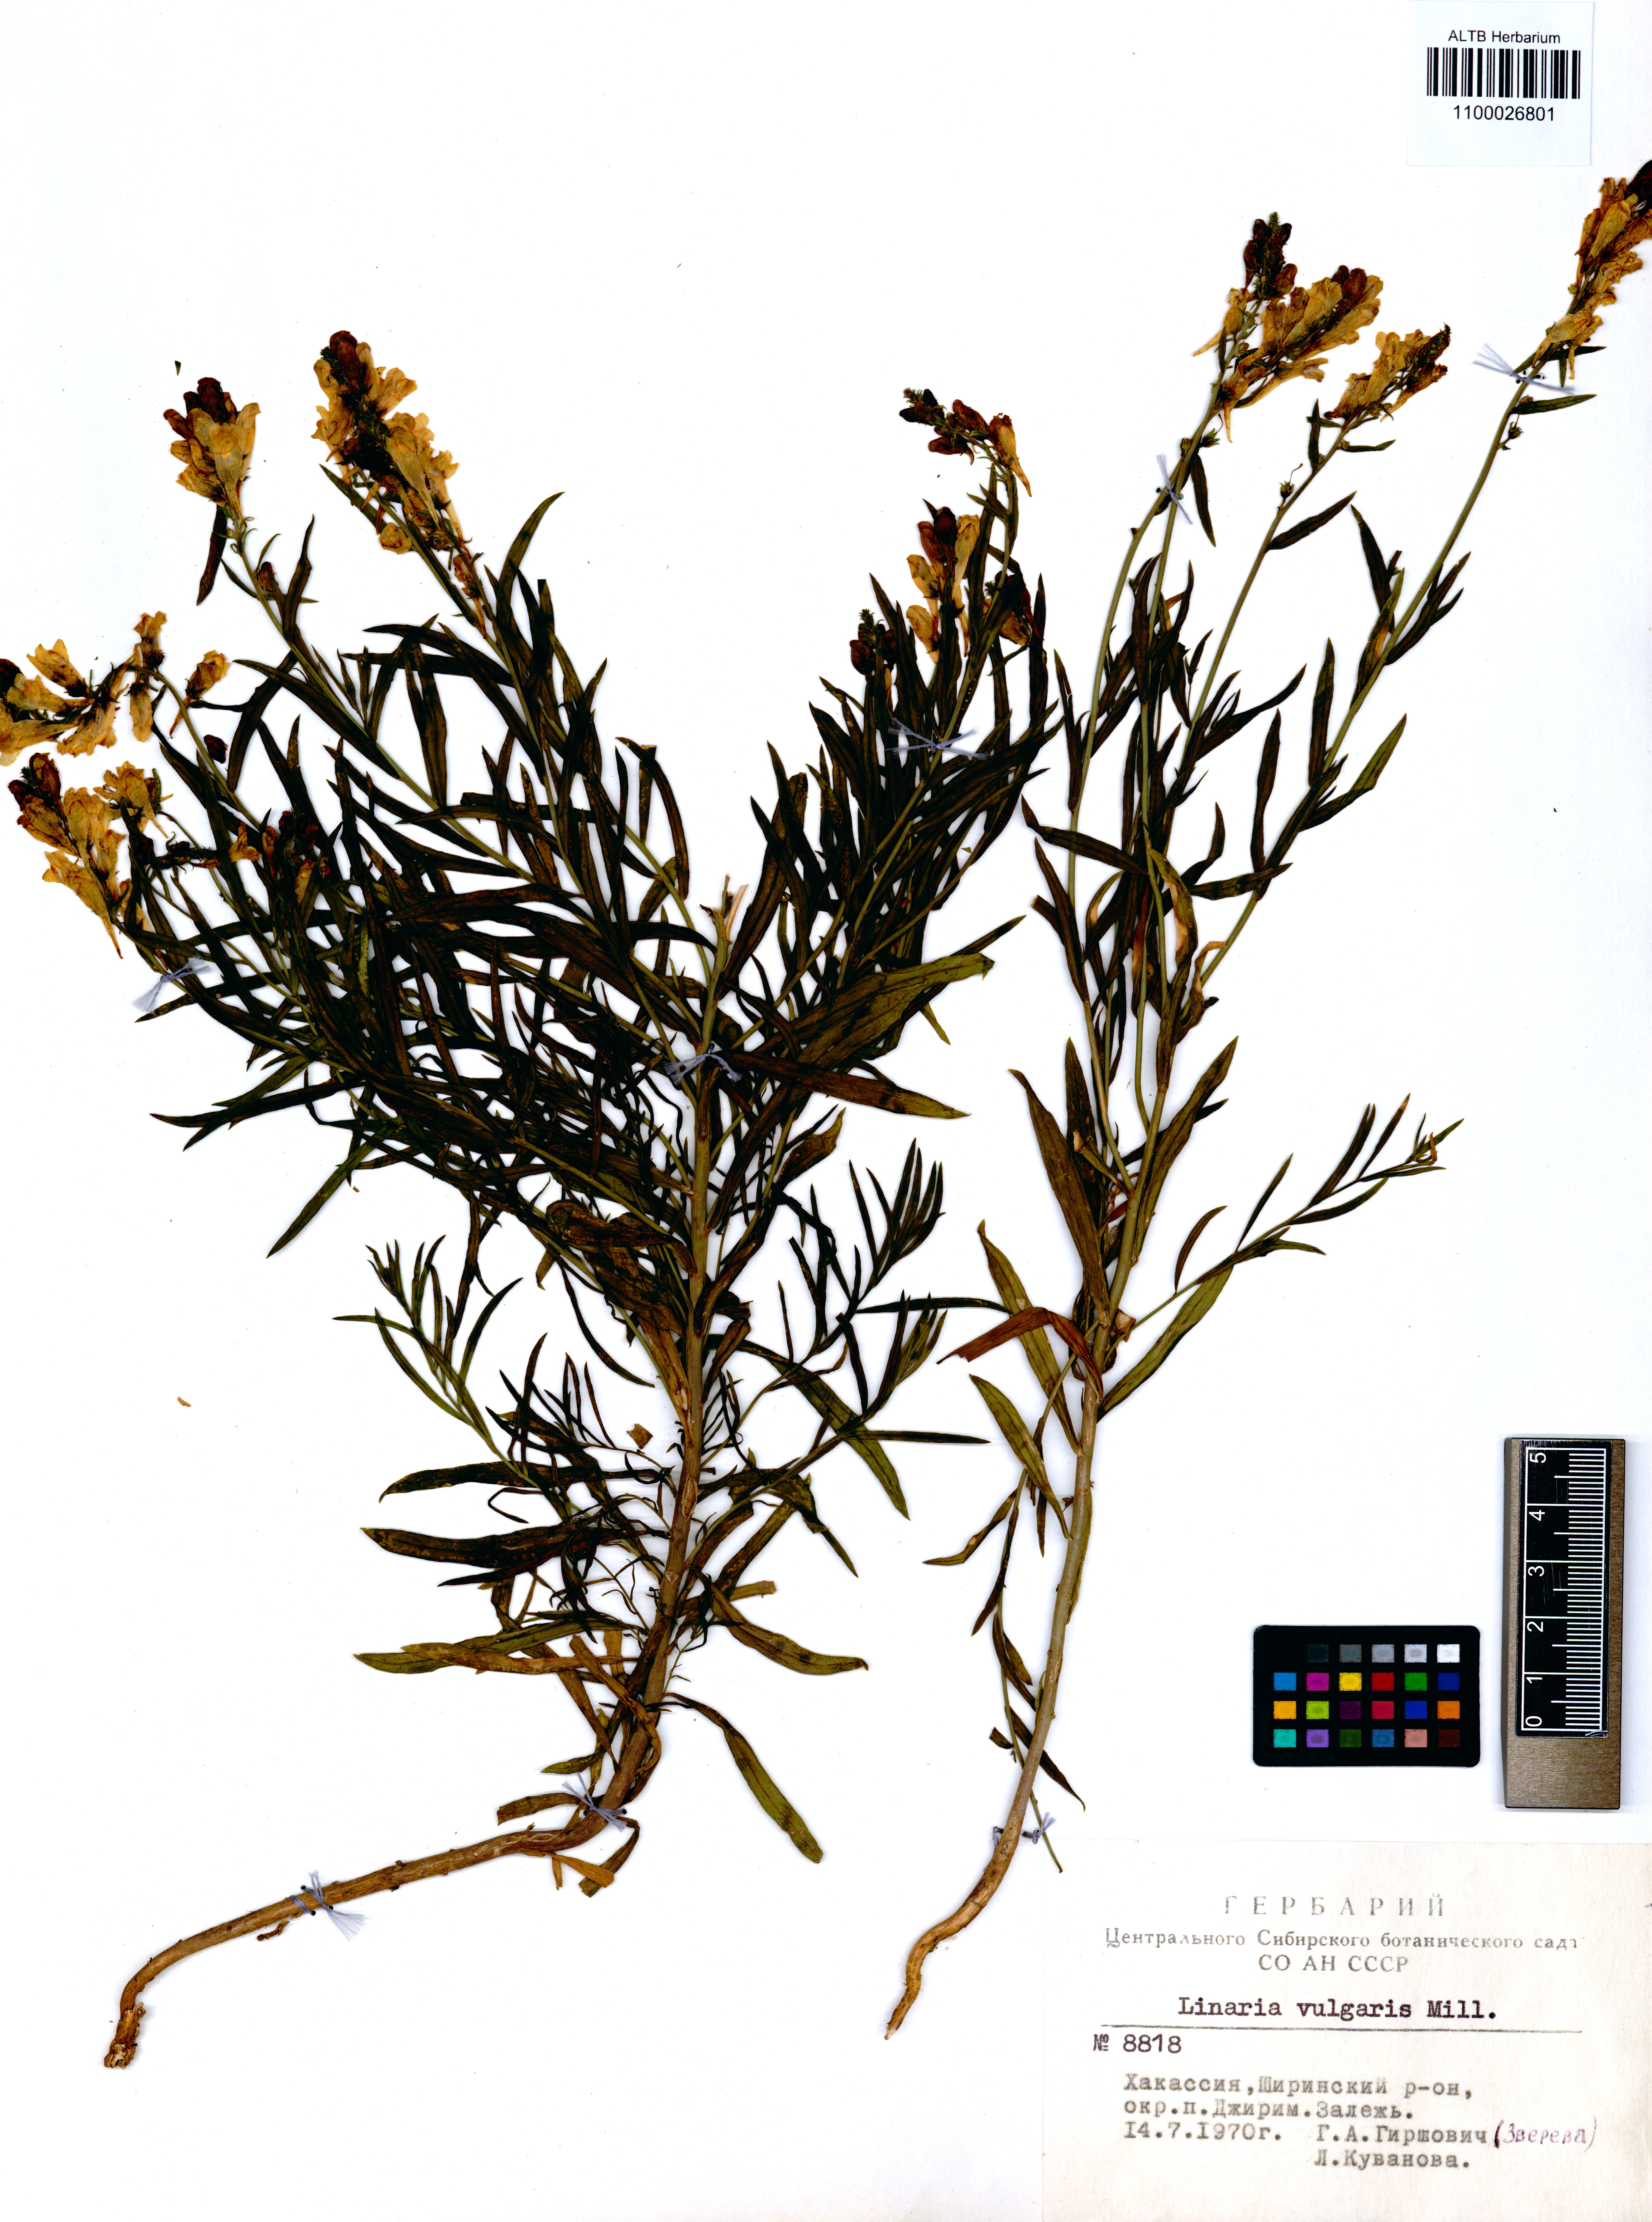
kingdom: Plantae
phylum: Tracheophyta
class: Magnoliopsida
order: Lamiales
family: Plantaginaceae
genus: Linaria
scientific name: Linaria vulgaris
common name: Butter and eggs
